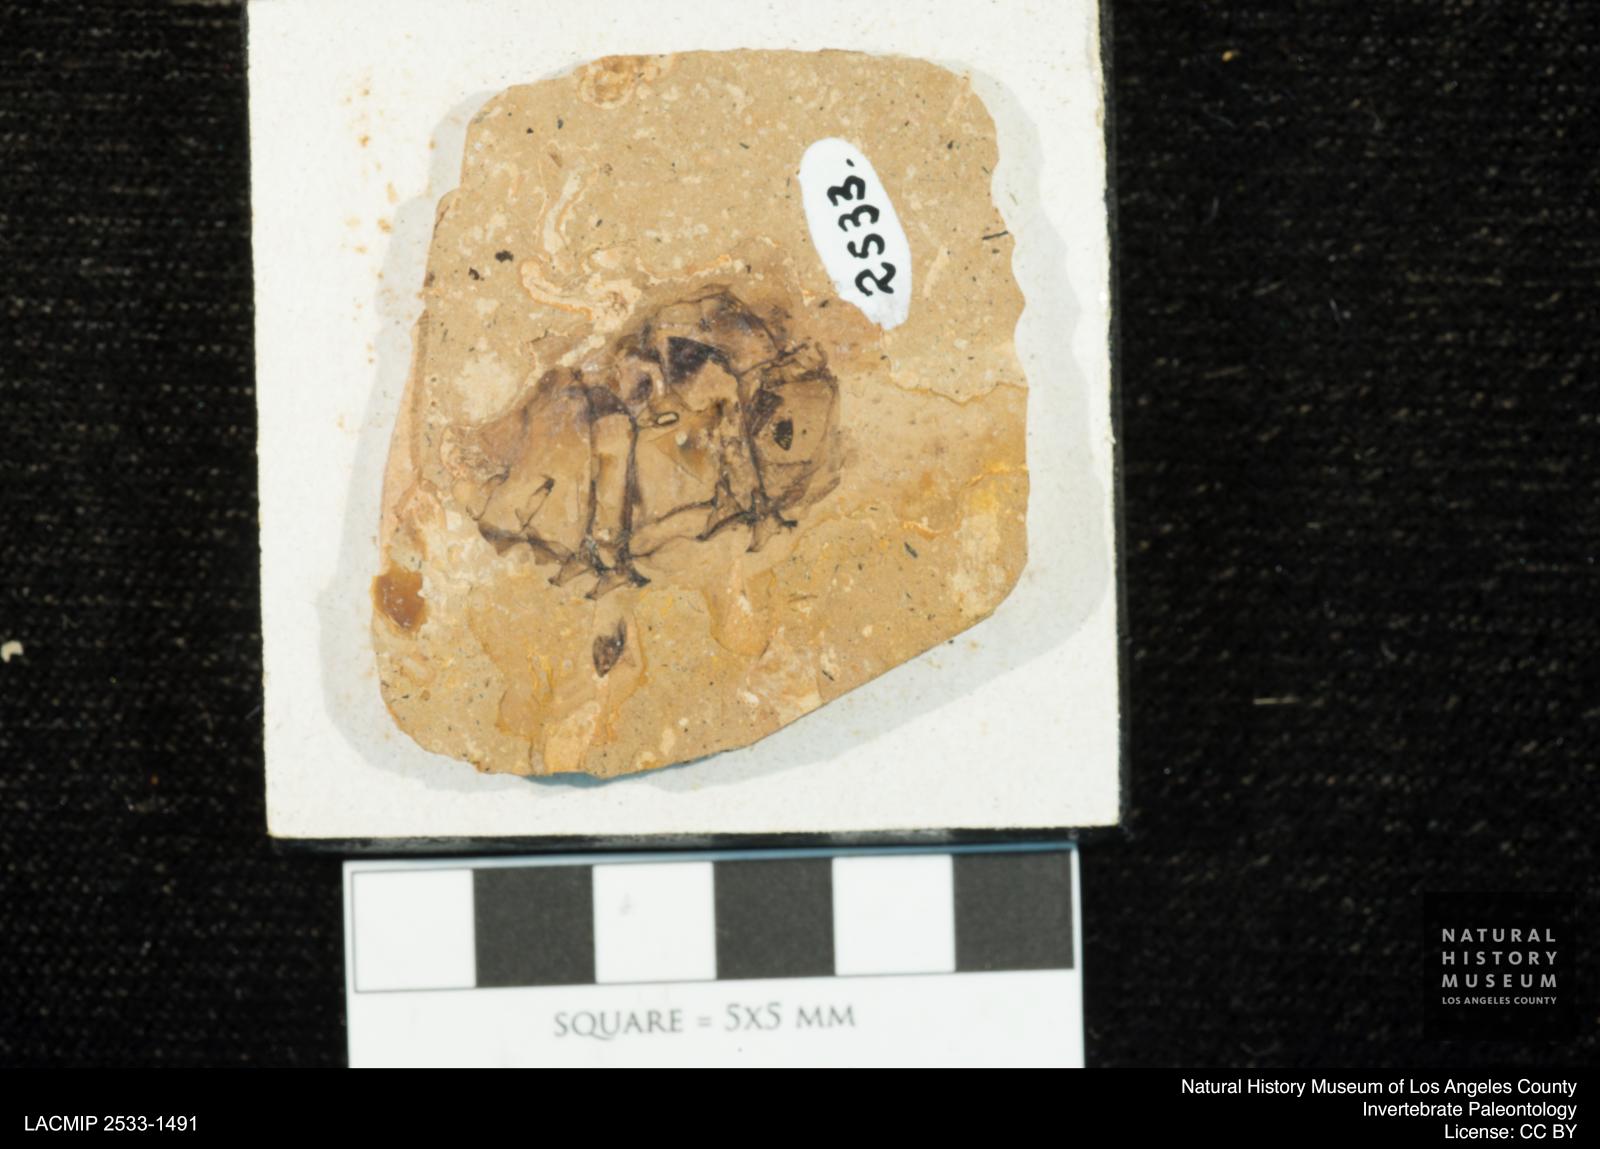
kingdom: Animalia
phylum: Arthropoda
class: Insecta
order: Odonata
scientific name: Odonata
